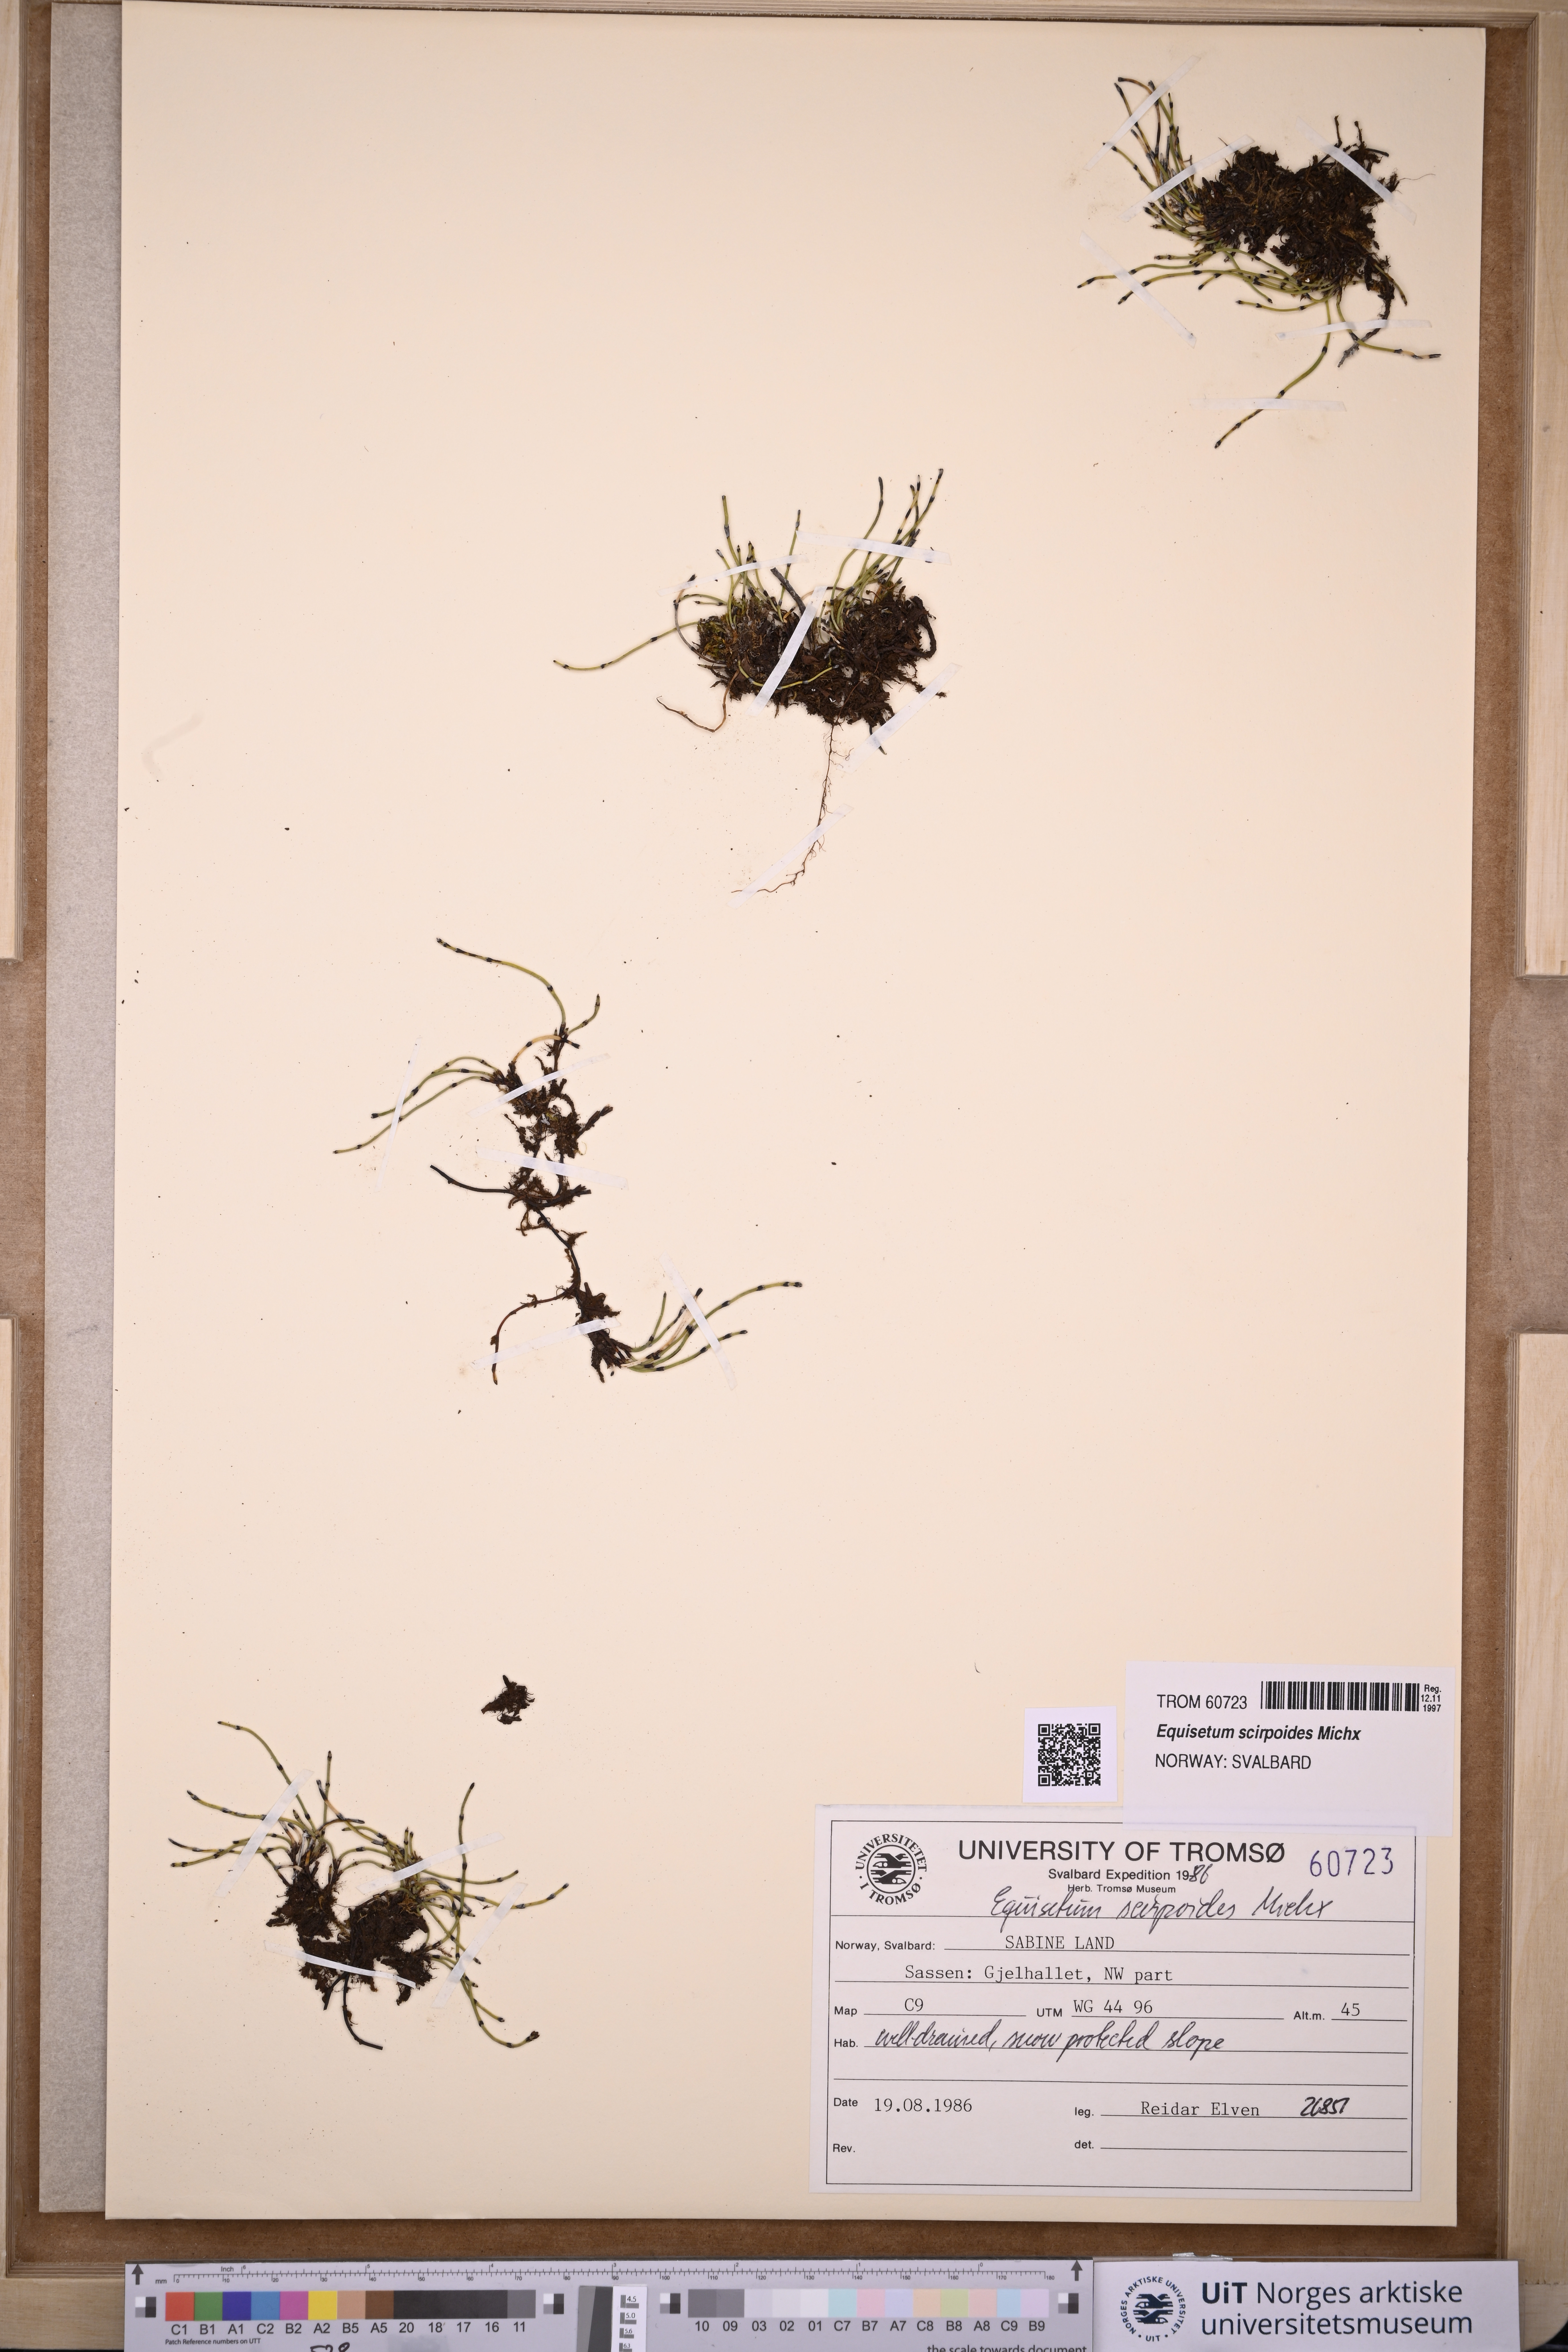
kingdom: Plantae
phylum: Tracheophyta
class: Polypodiopsida
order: Equisetales
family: Equisetaceae
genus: Equisetum
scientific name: Equisetum scirpoides
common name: Delicate horsetail
